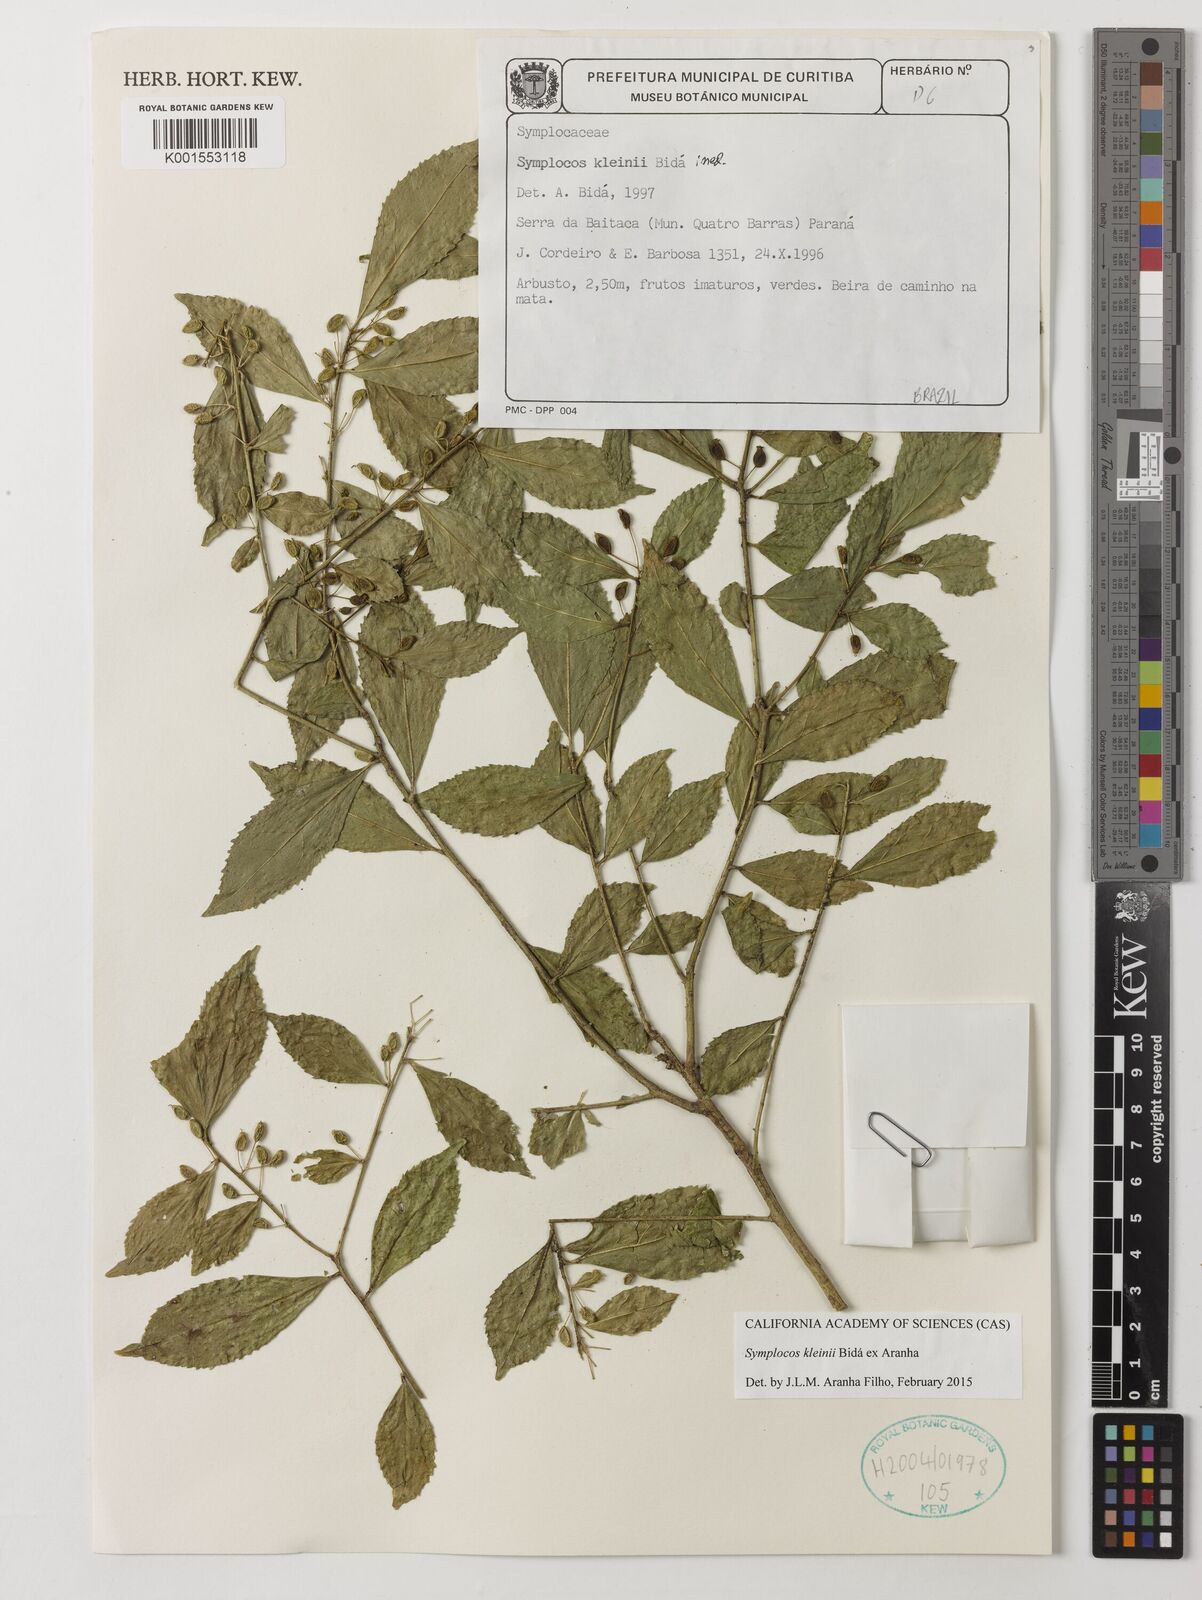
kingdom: Plantae
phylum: Tracheophyta
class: Magnoliopsida
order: Ericales
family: Symplocaceae
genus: Symplocos
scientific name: Symplocos kleinii
